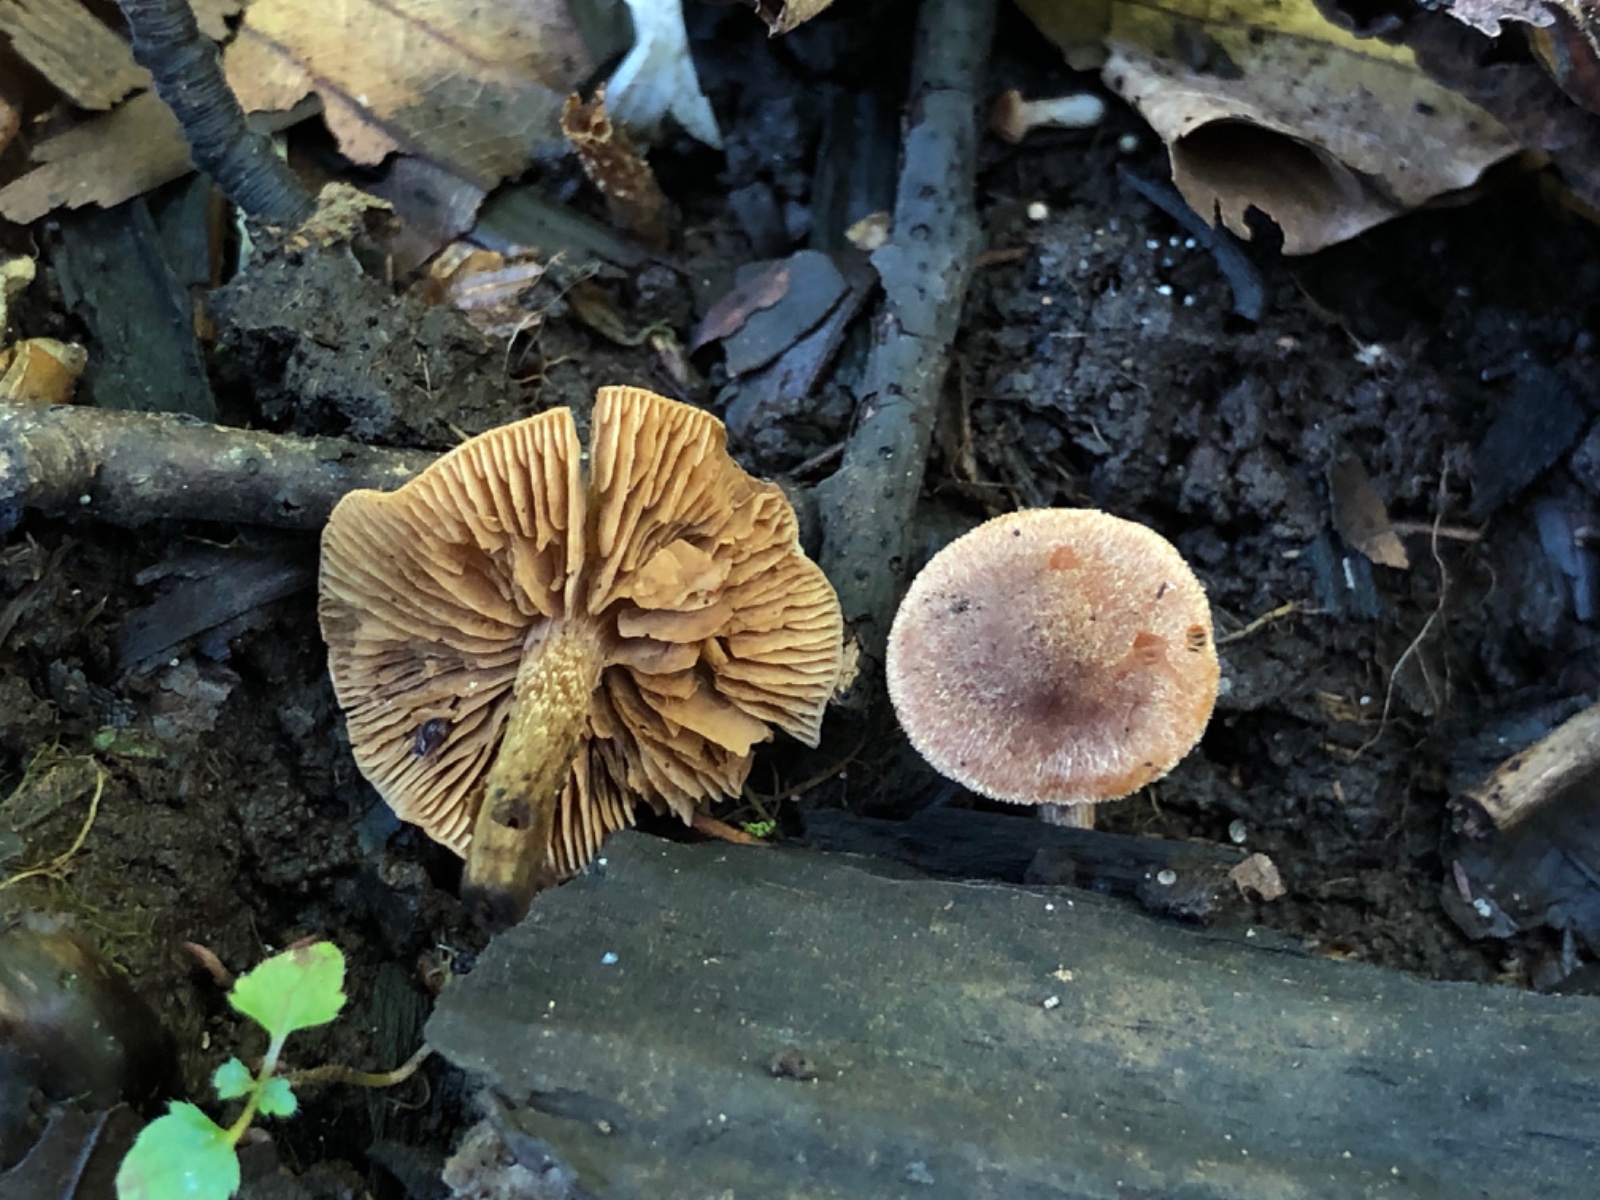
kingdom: Fungi
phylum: Basidiomycota
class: Agaricomycetes
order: Agaricales
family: Hymenogastraceae
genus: Naucoria
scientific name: Naucoria
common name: knaphat
